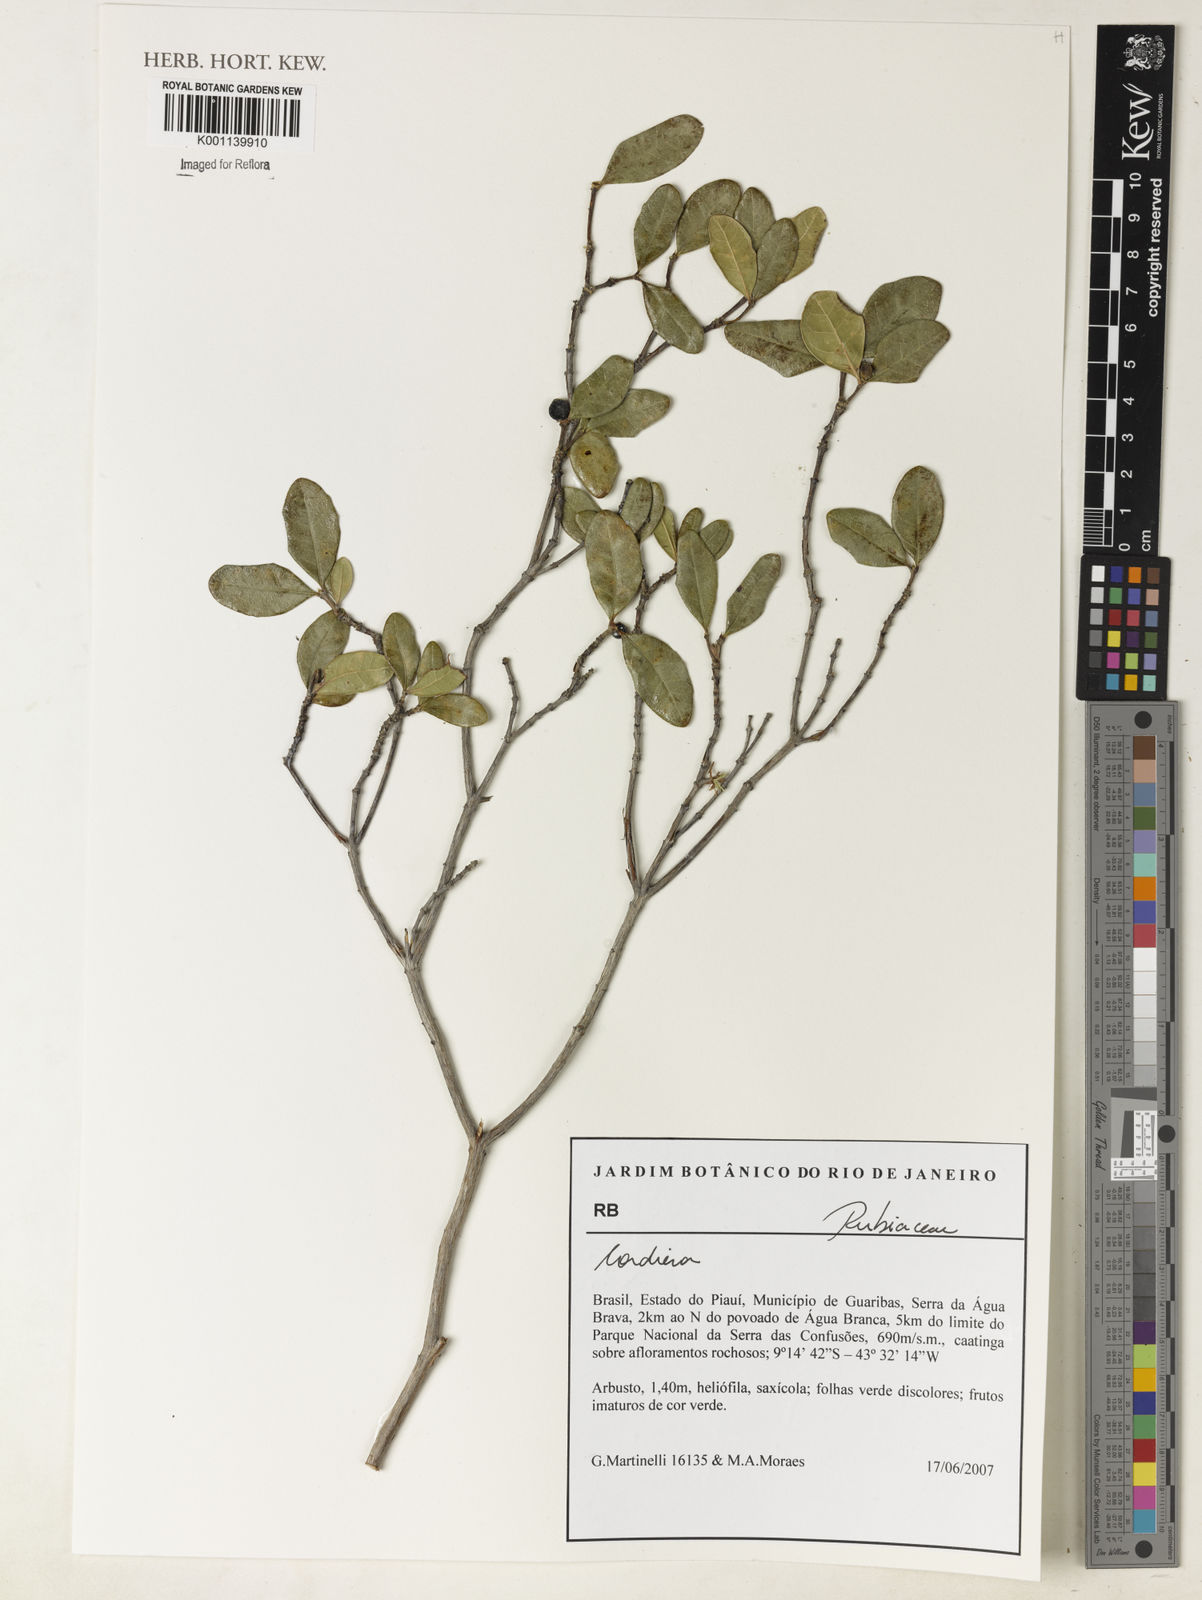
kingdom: Plantae
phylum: Tracheophyta
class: Magnoliopsida
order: Gentianales
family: Rubiaceae
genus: Alibertia
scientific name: Alibertia
